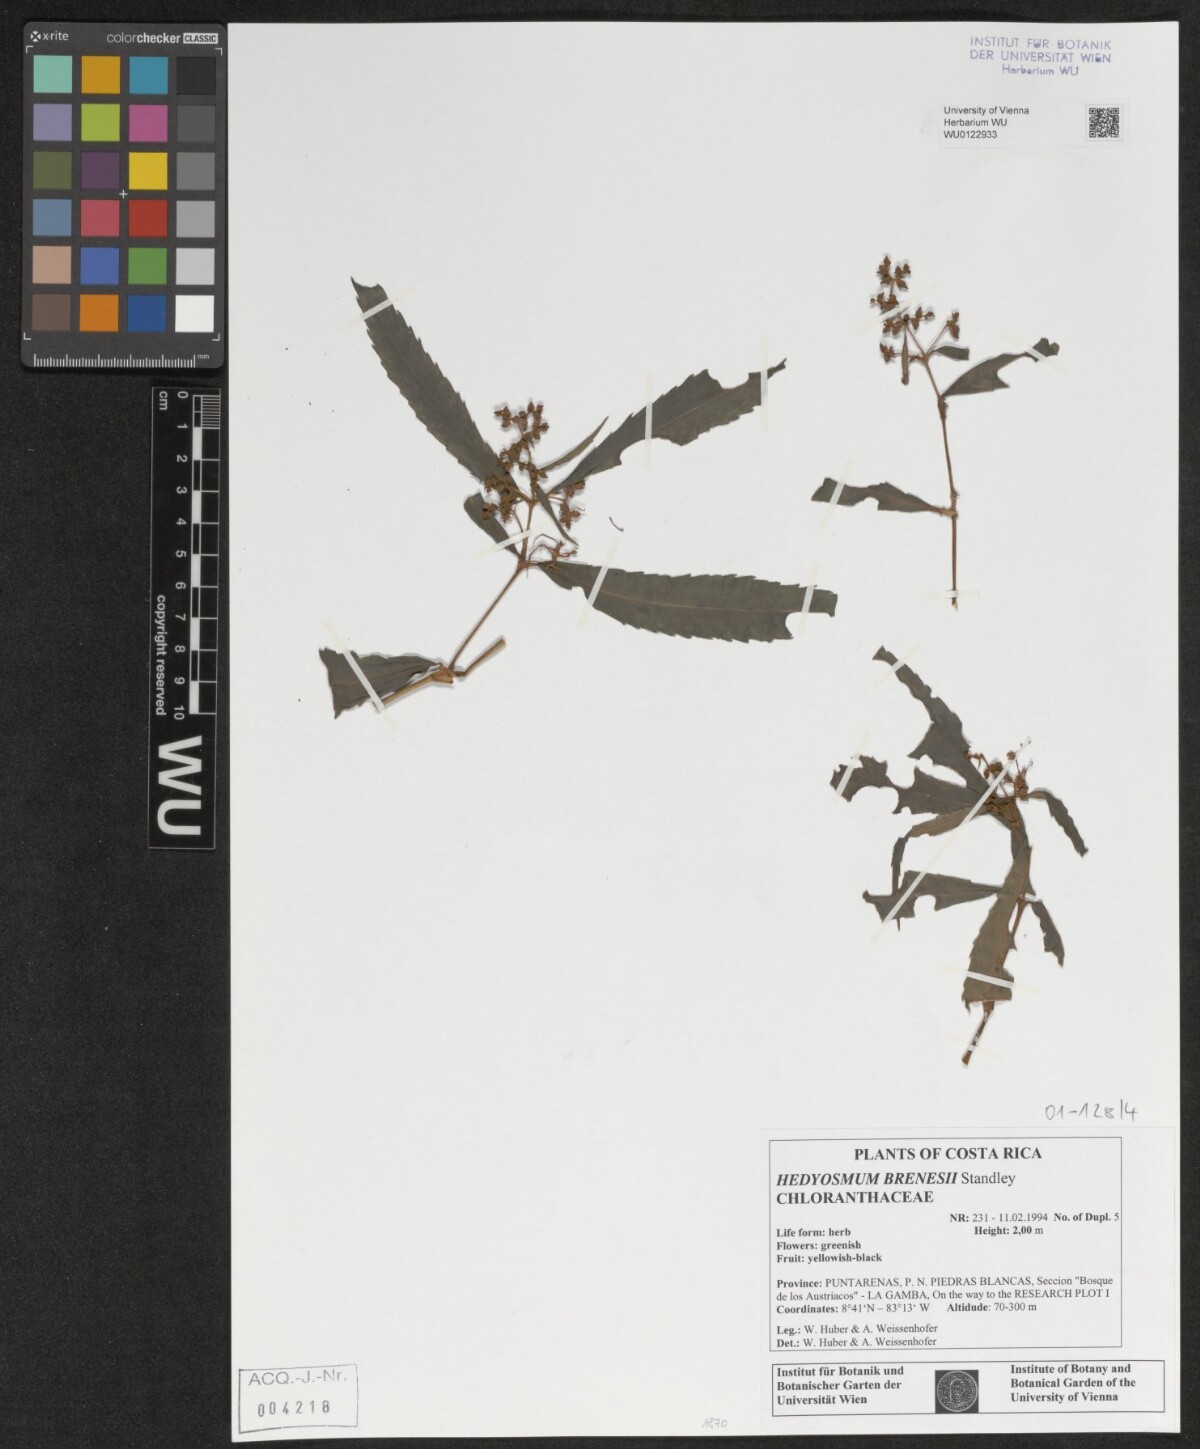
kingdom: Plantae
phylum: Tracheophyta
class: Magnoliopsida
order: Chloranthales
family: Chloranthaceae
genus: Hedyosmum
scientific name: Hedyosmum brenesii
